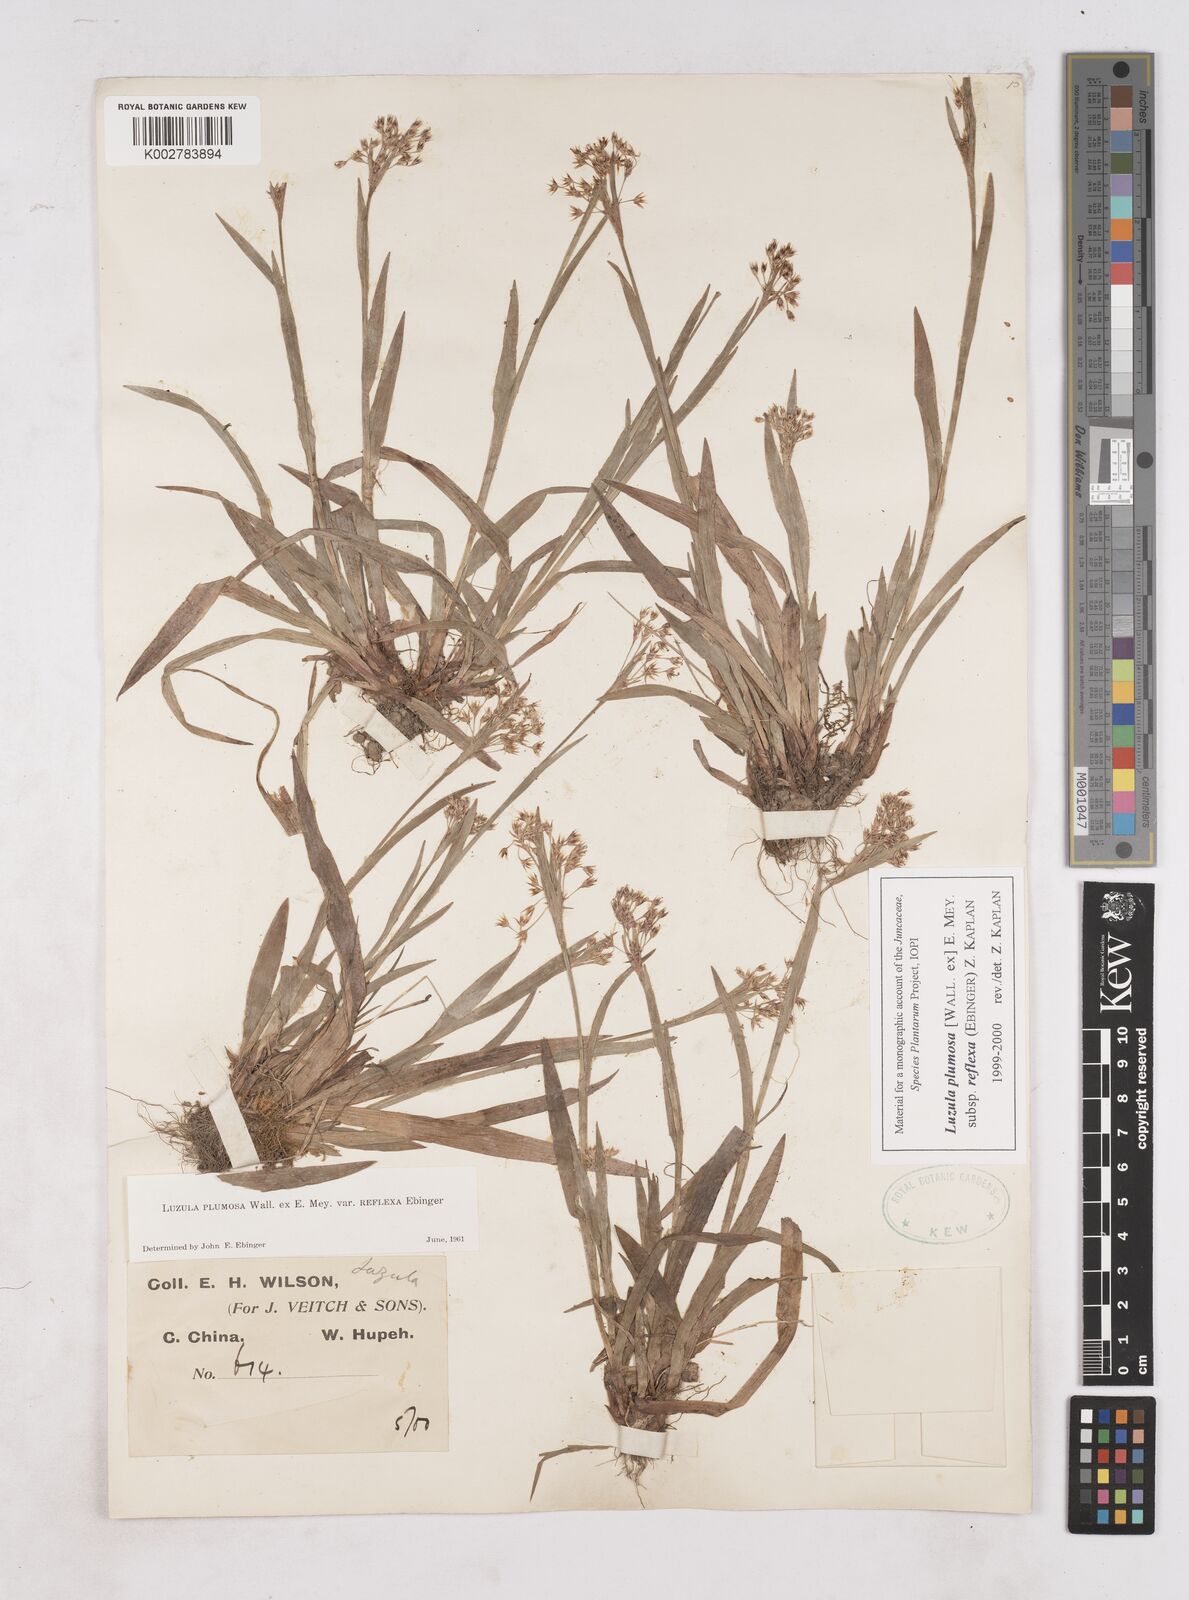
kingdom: Plantae
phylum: Tracheophyta
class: Liliopsida
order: Poales
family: Juncaceae
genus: Luzula
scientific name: Luzula plumosa
